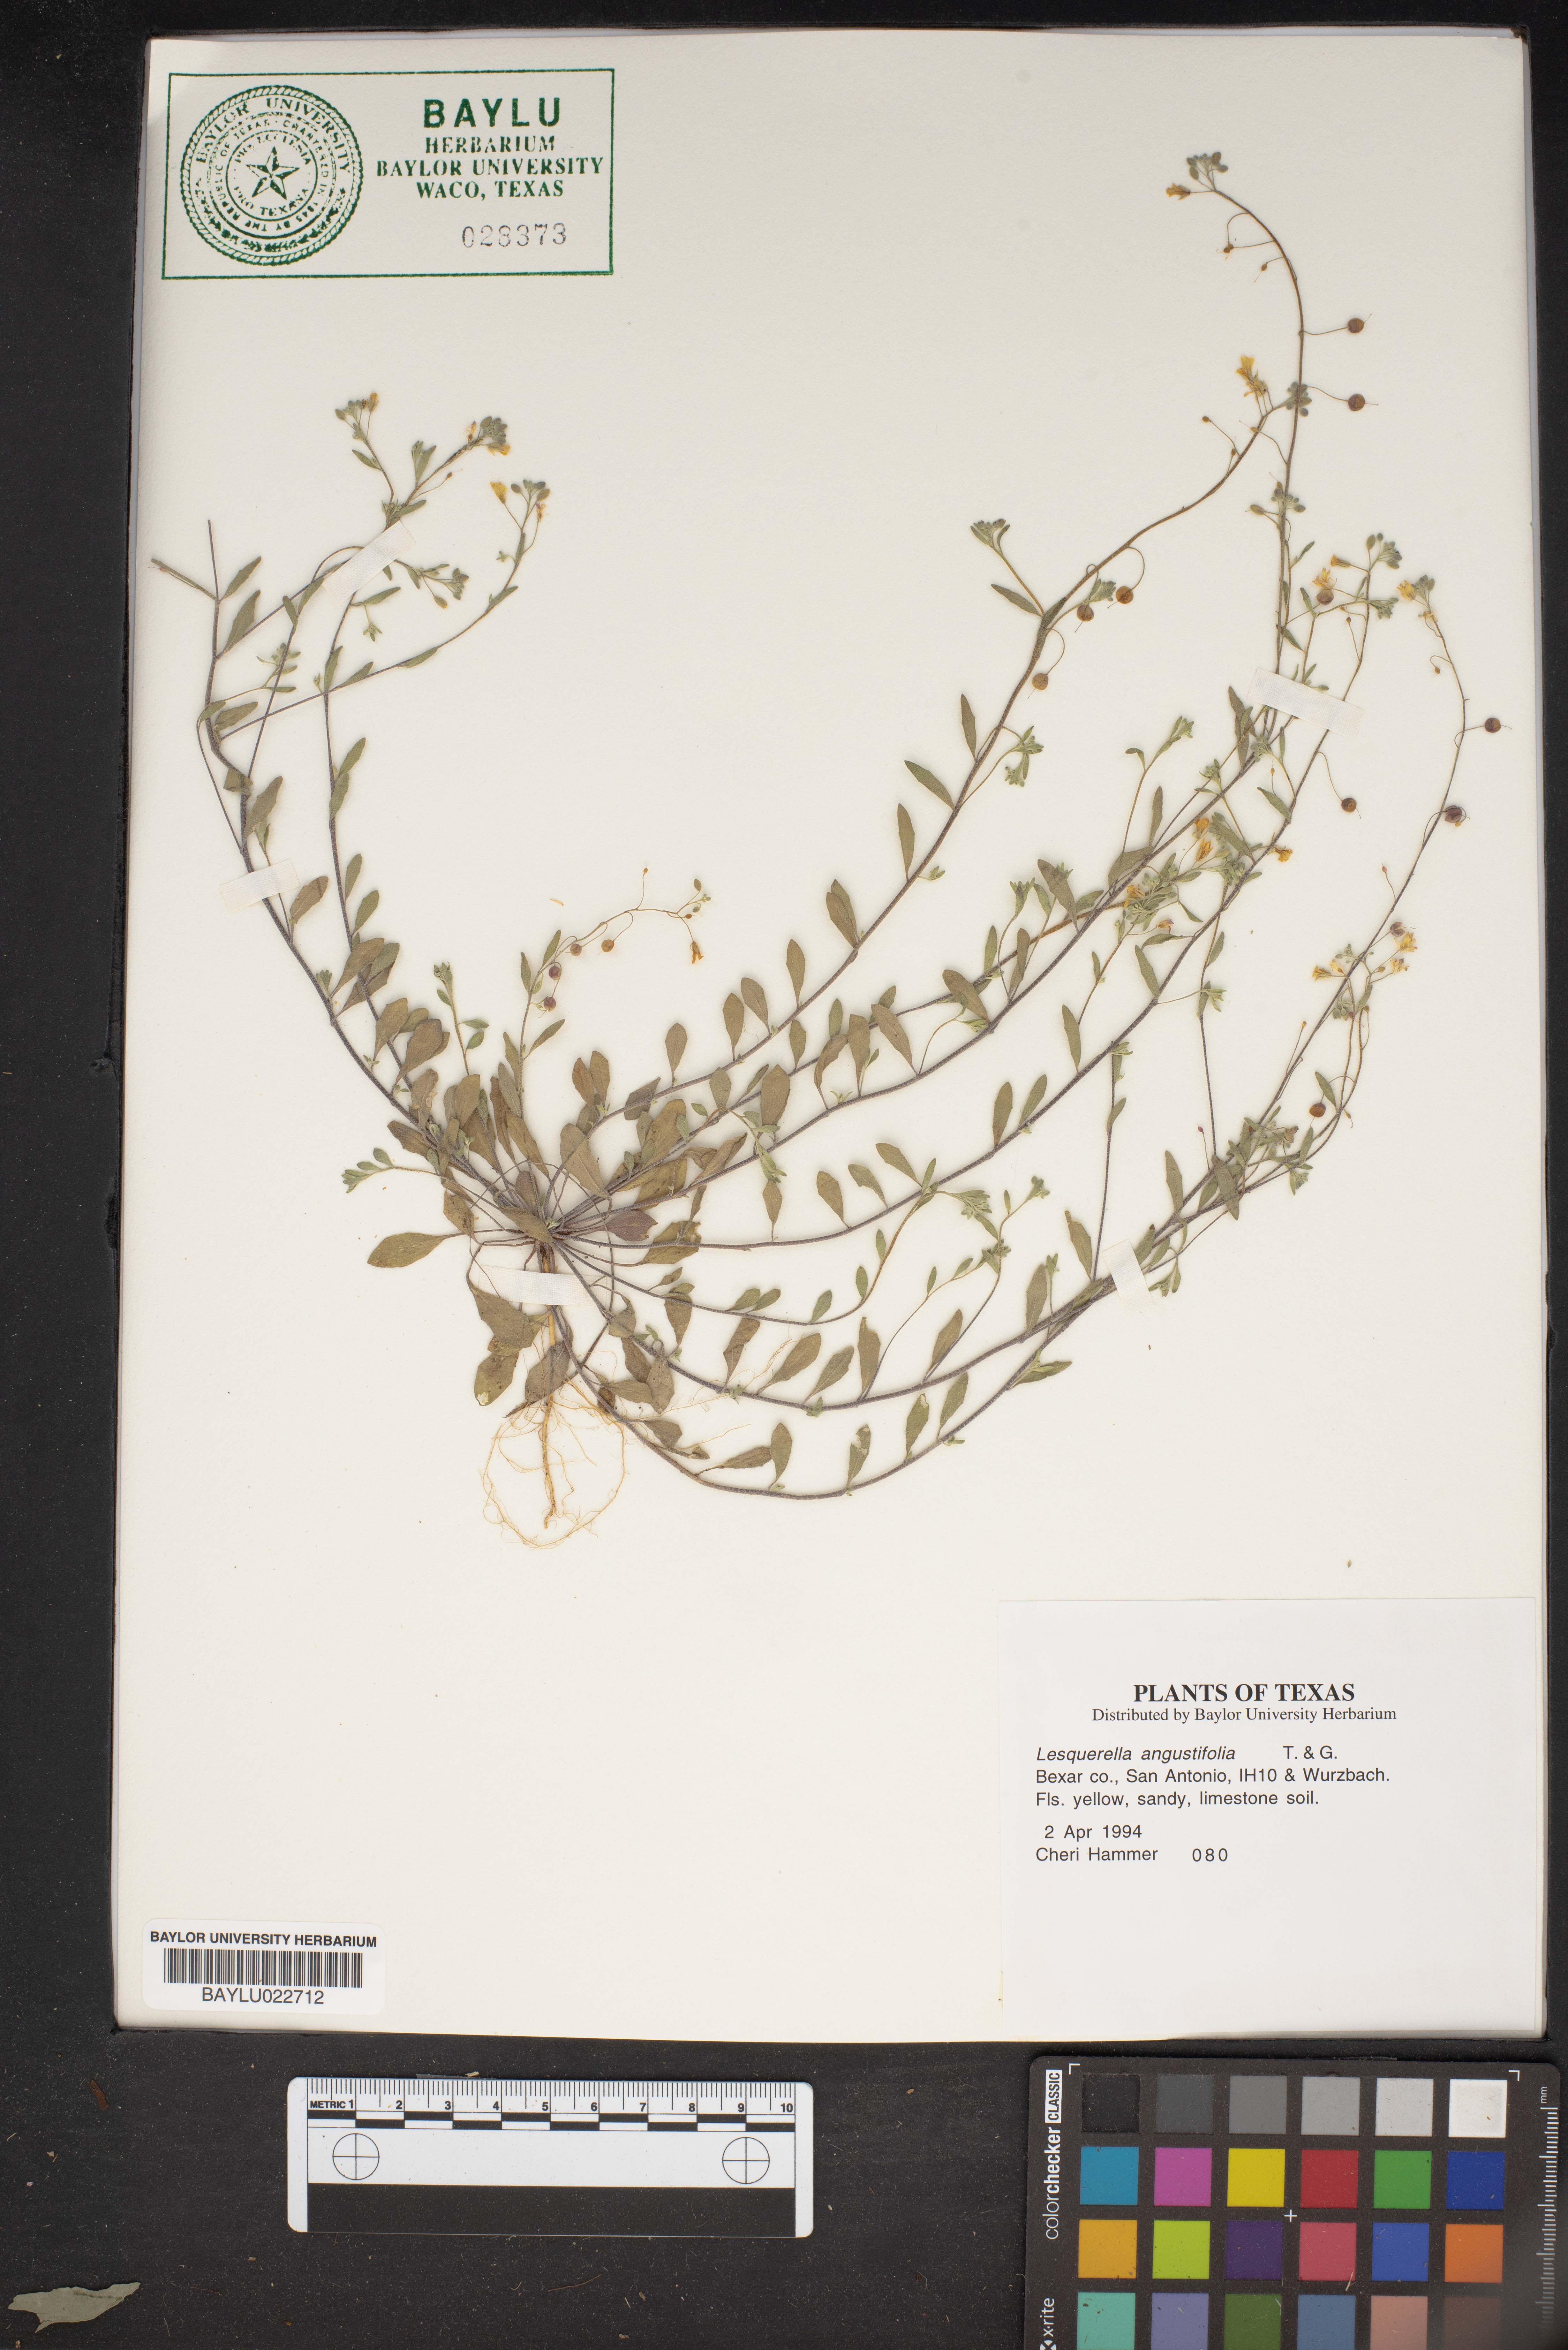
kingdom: Plantae
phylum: Tracheophyta
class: Magnoliopsida
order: Brassicales
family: Brassicaceae
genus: Physaria
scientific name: Physaria angustifolia
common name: Threadleaf bladderpod
